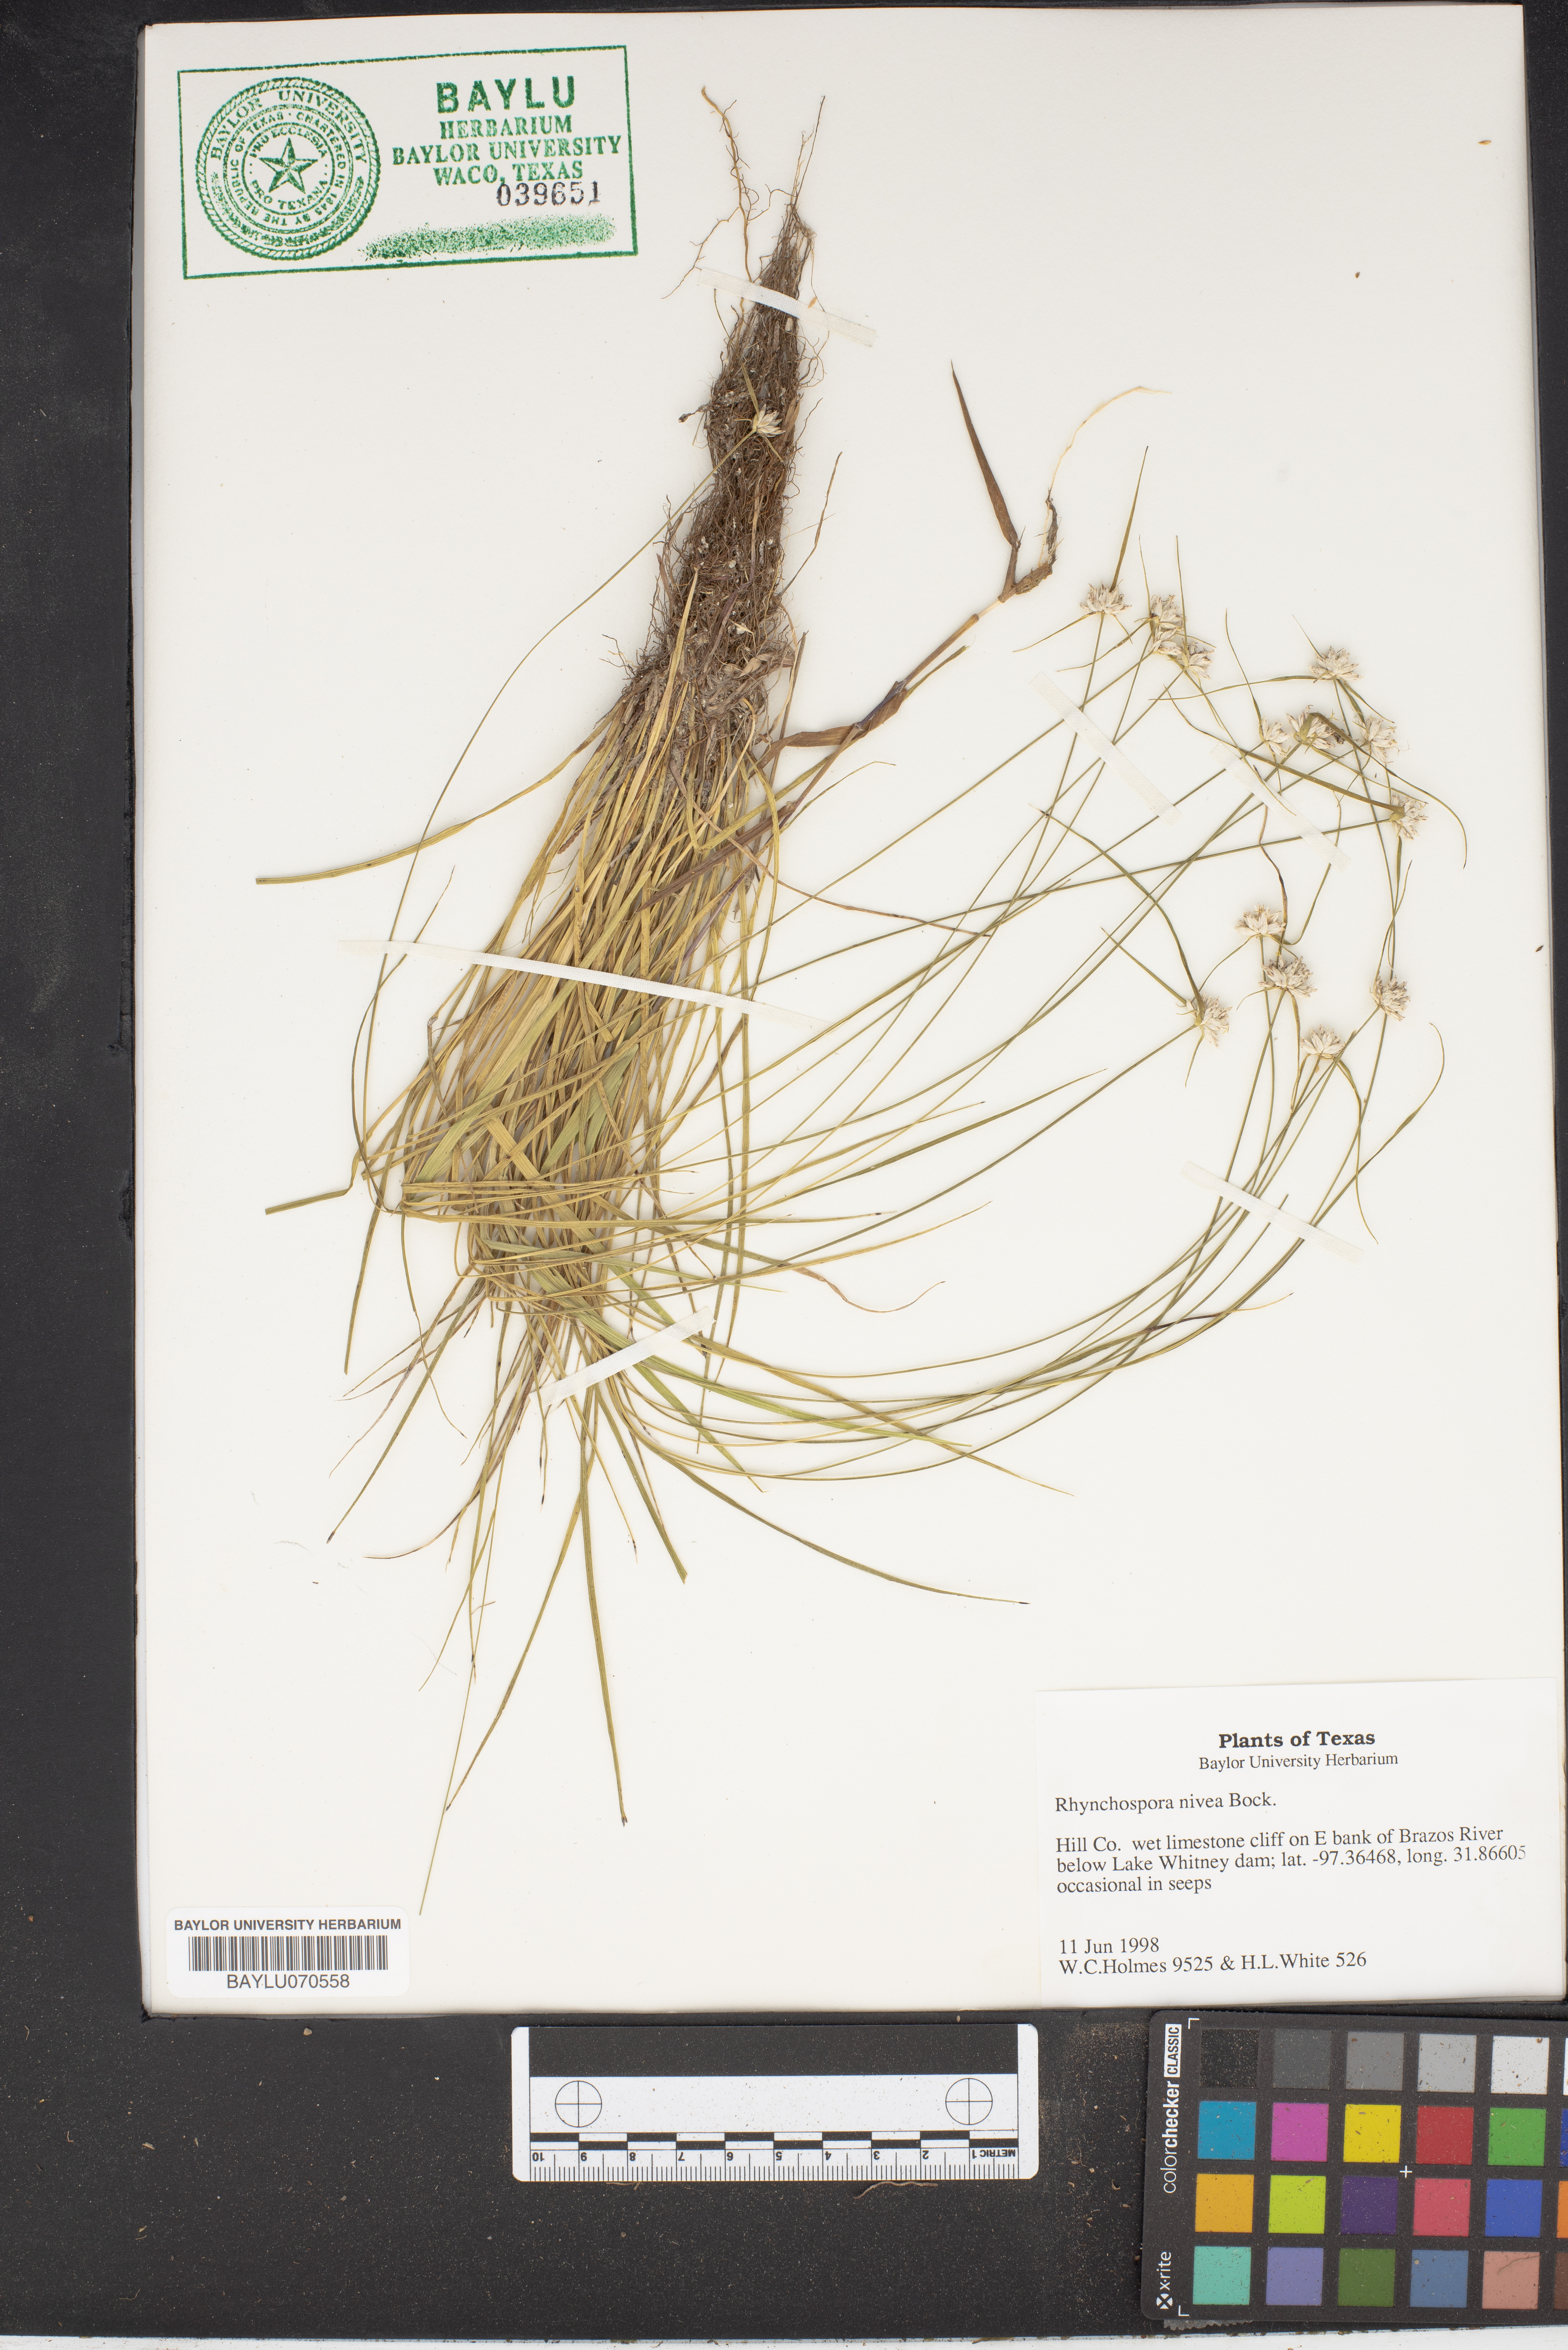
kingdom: Plantae
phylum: Tracheophyta
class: Liliopsida
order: Poales
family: Cyperaceae
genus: Rhynchospora
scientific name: Rhynchospora nivea
